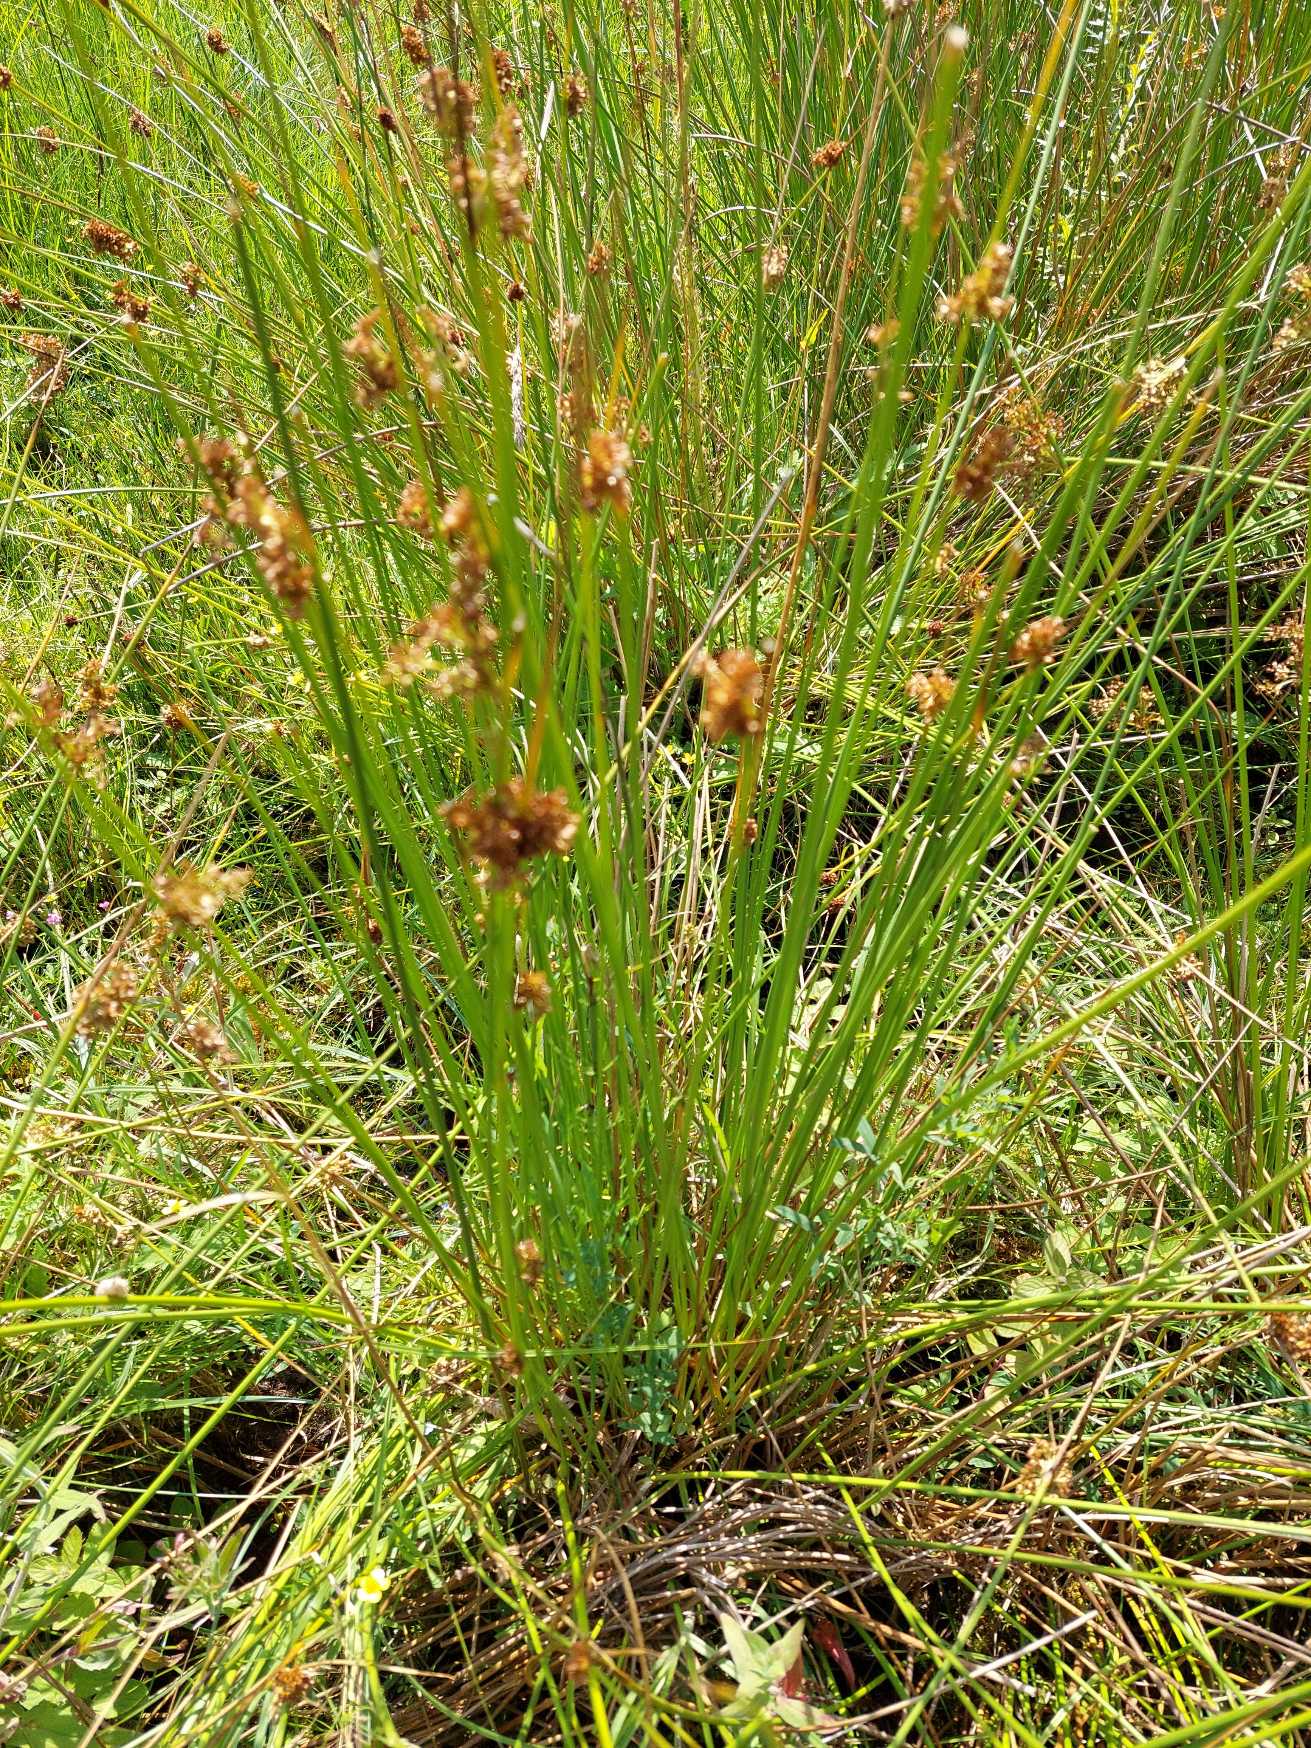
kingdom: Plantae
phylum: Tracheophyta
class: Liliopsida
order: Poales
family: Juncaceae
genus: Juncus
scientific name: Juncus effusus
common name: Lyse-siv
